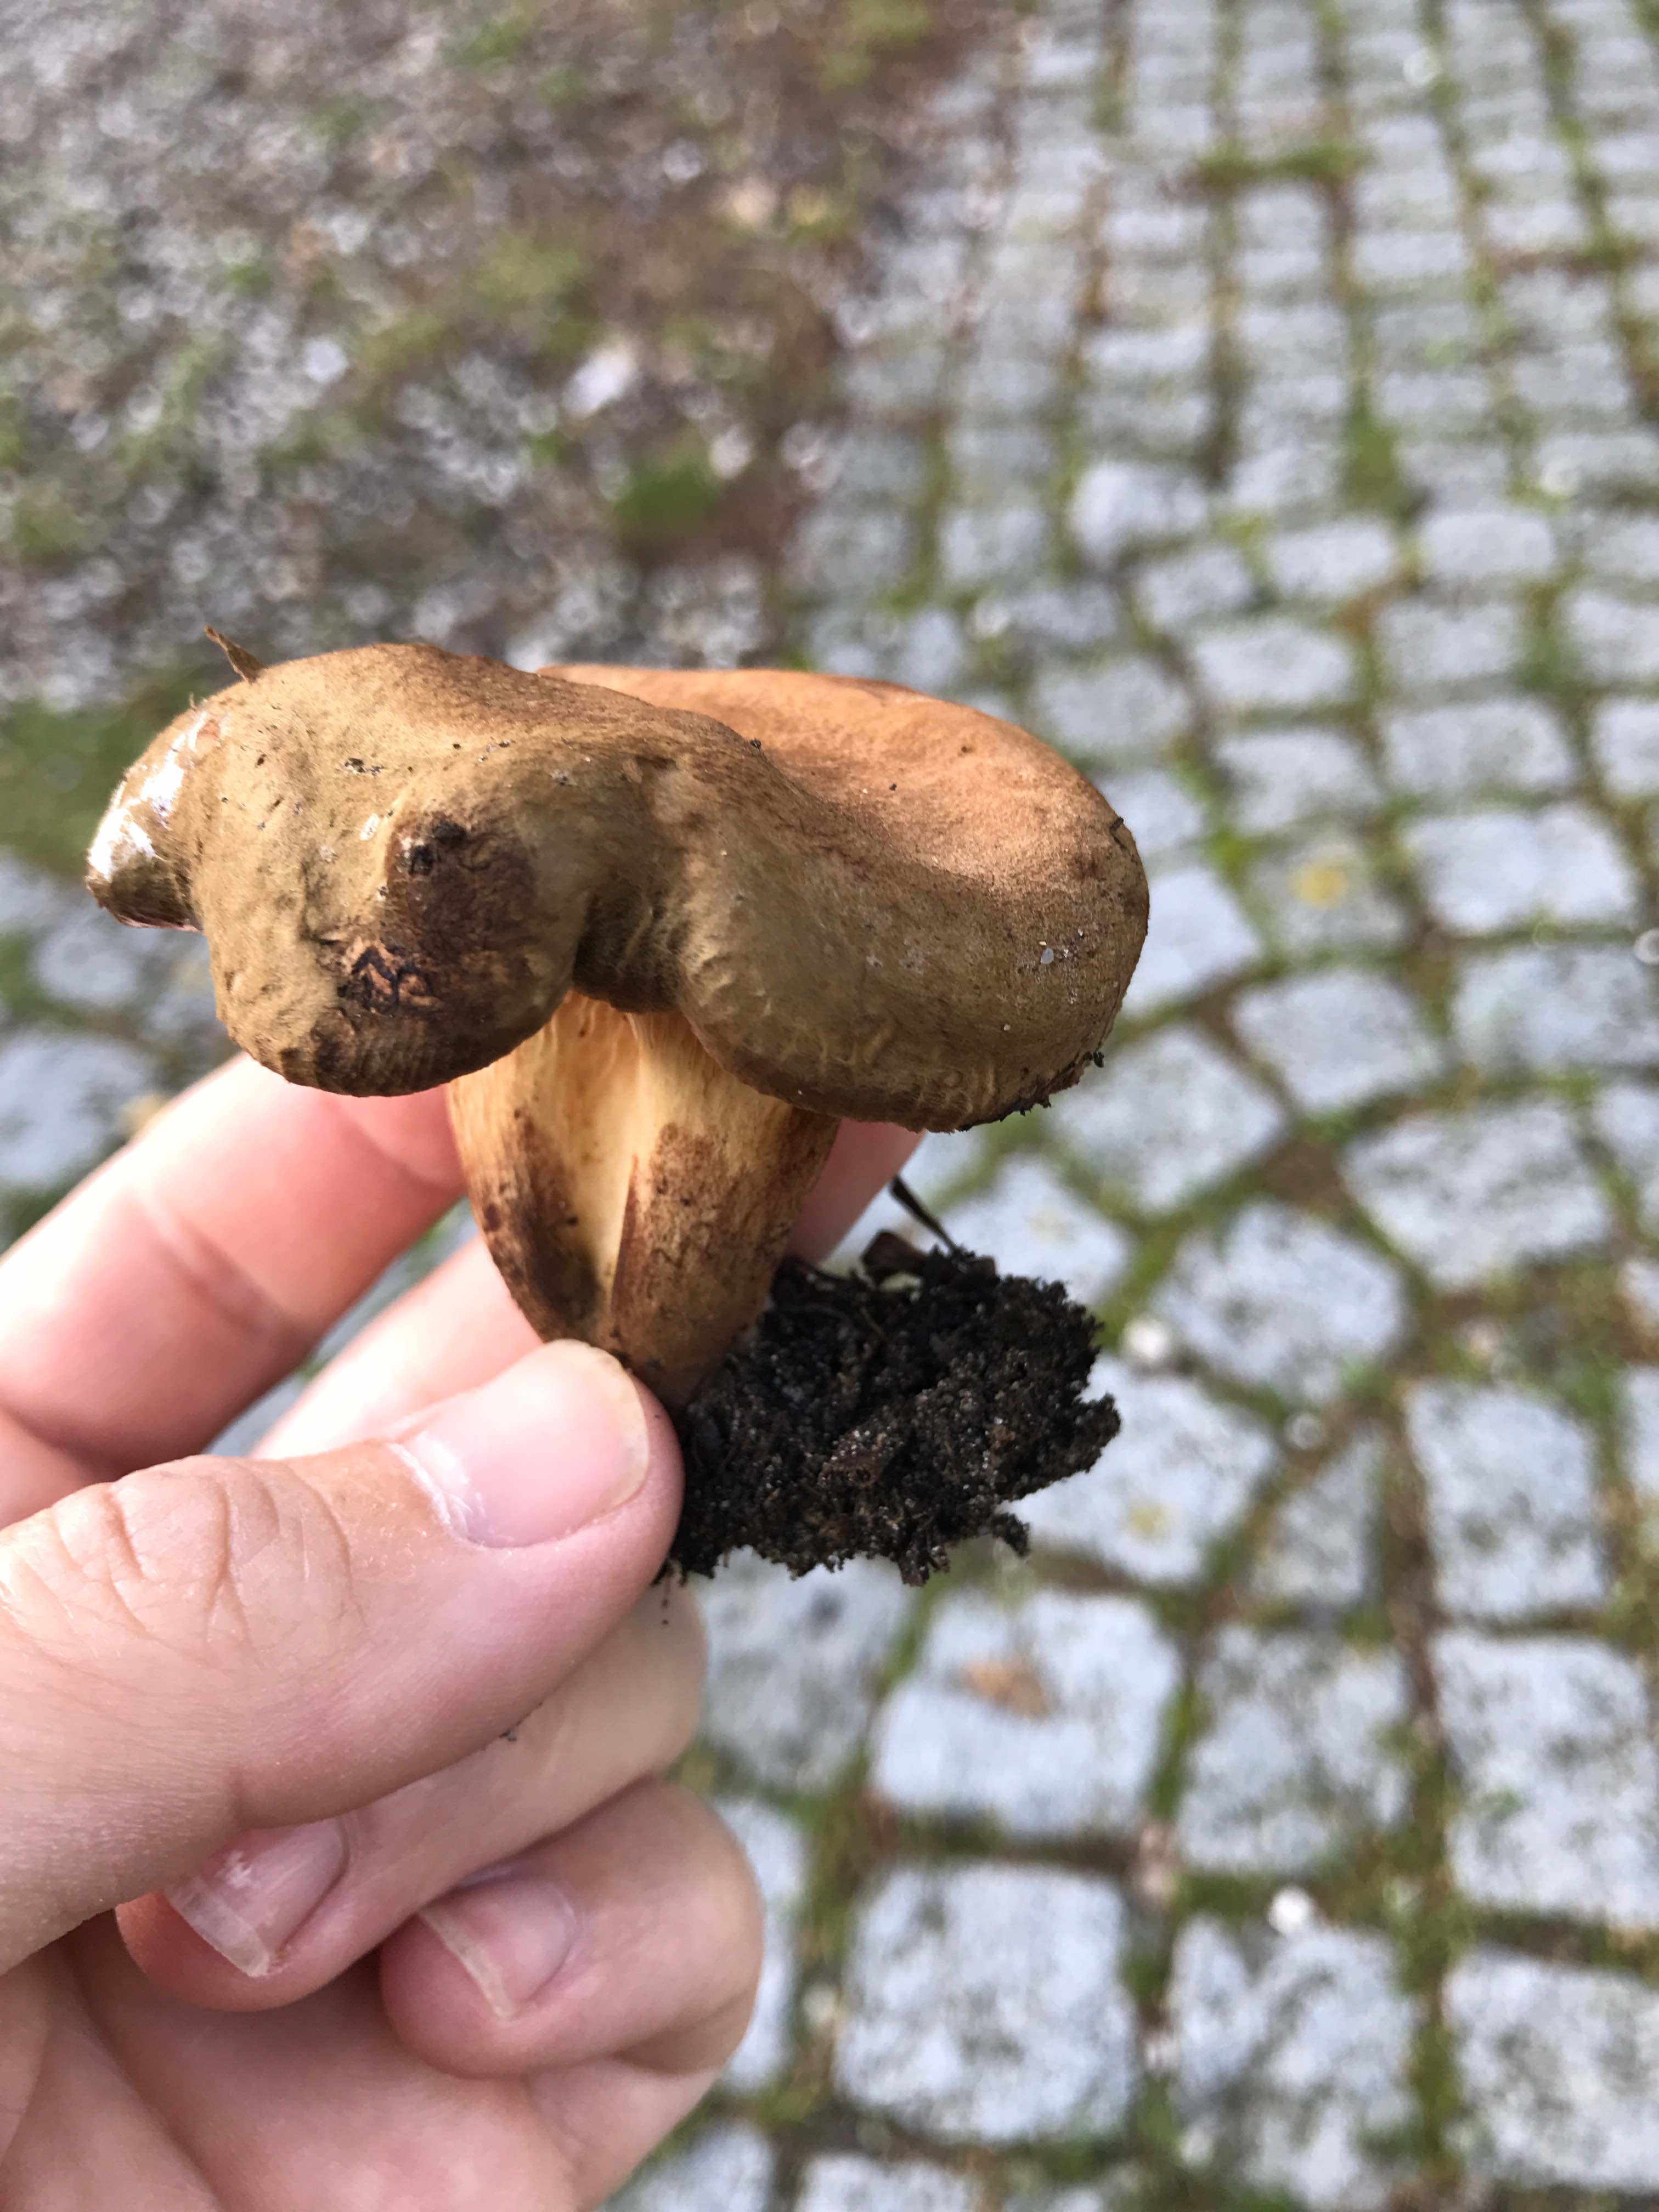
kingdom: Fungi
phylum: Basidiomycota
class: Agaricomycetes
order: Boletales
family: Paxillaceae
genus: Paxillus
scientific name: Paxillus
